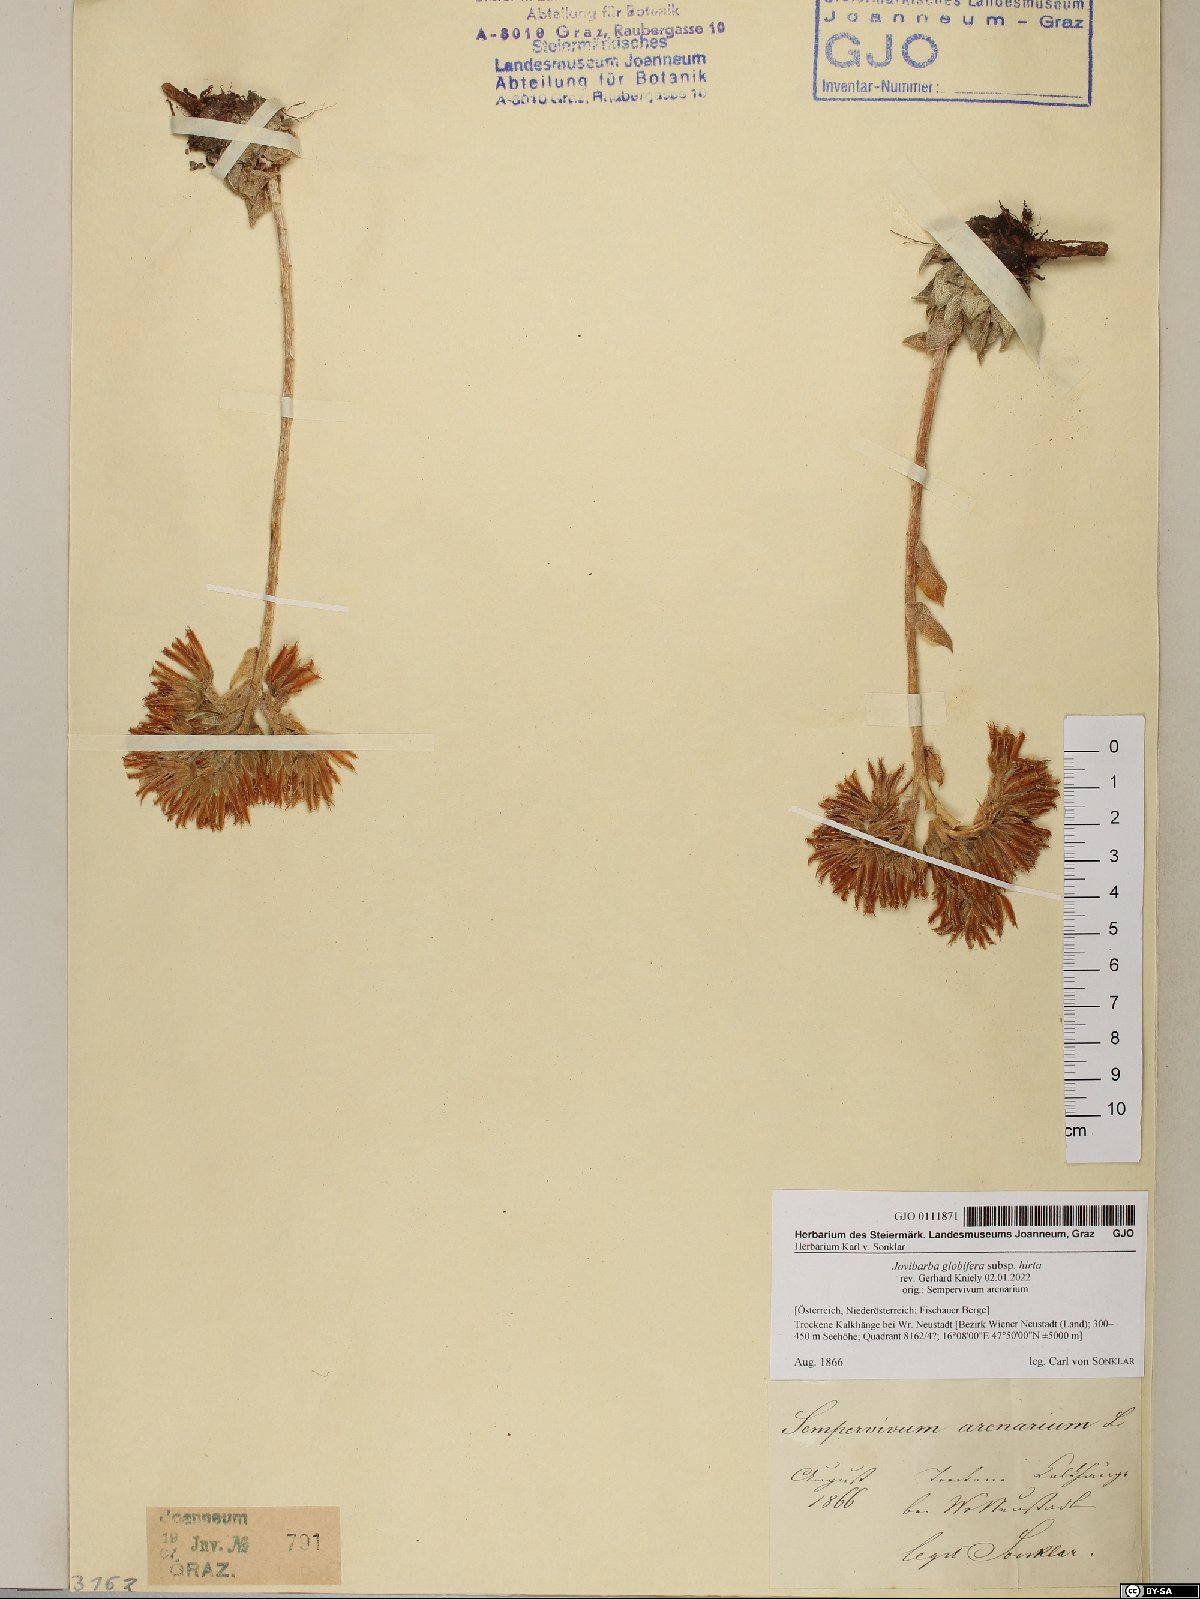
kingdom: Plantae
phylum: Tracheophyta
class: Magnoliopsida
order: Saxifragales
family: Crassulaceae
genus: Sempervivum
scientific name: Sempervivum globiferum
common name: Rolling hen-and-chicks
